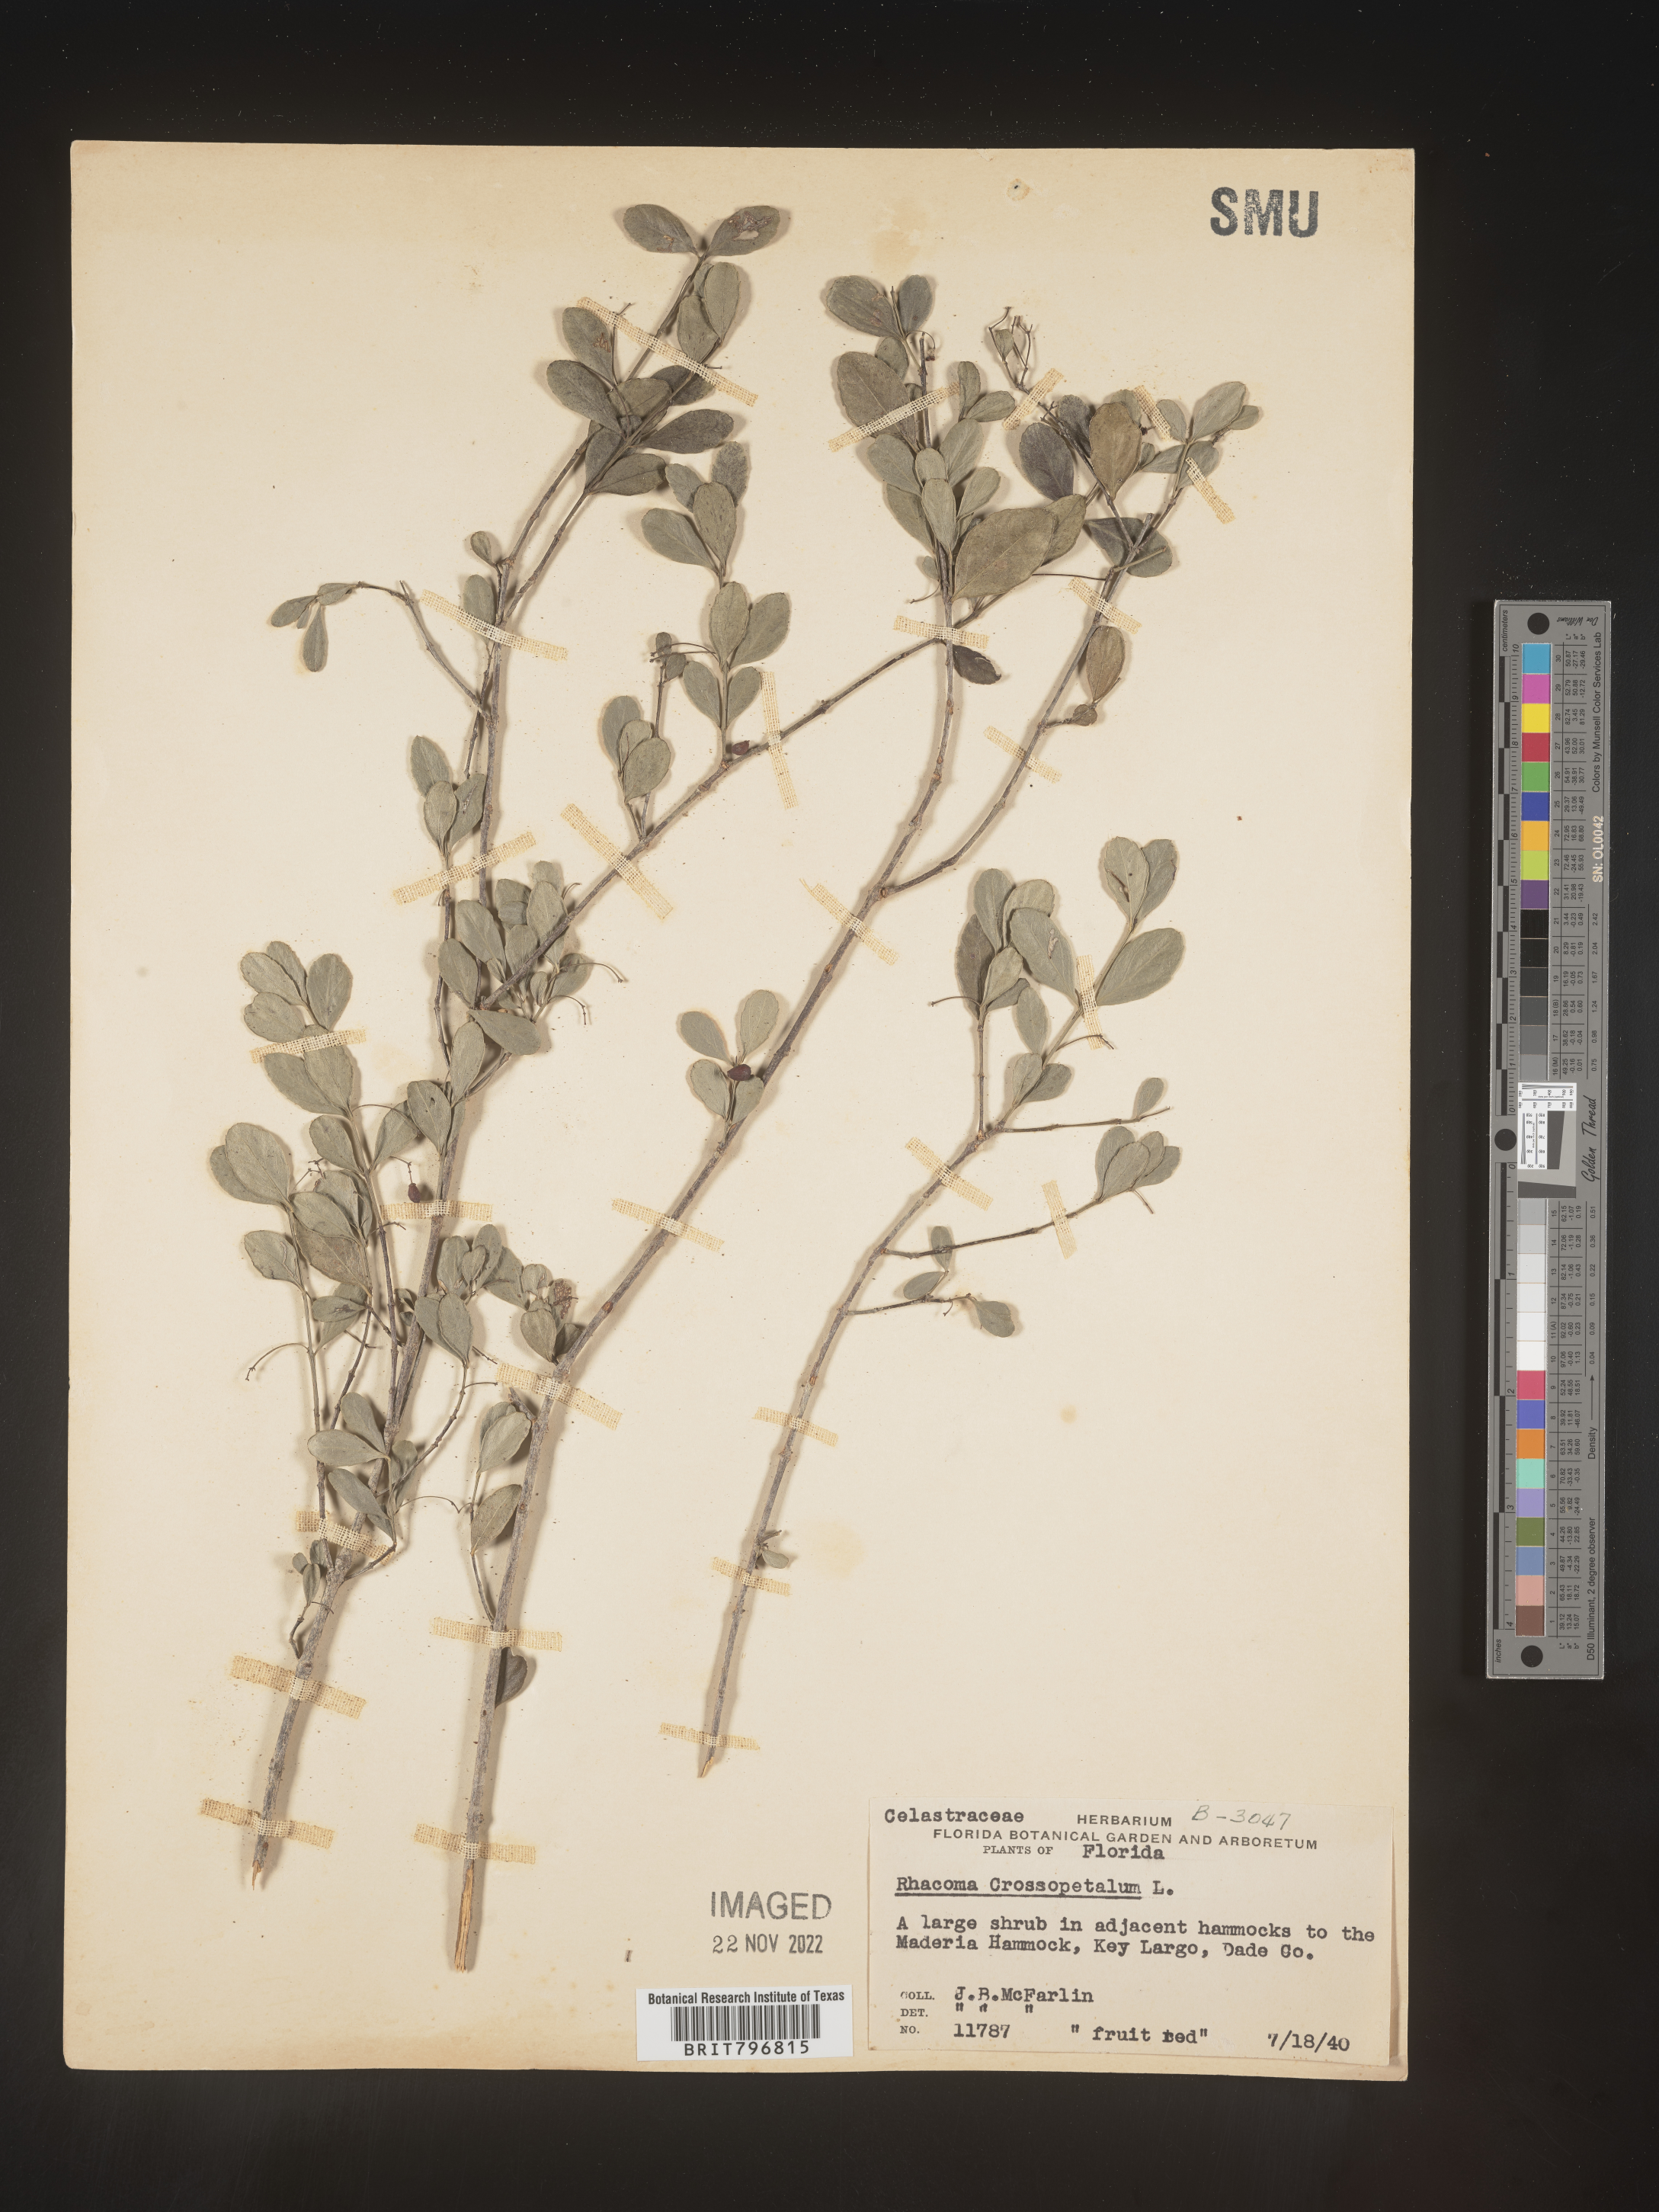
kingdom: Plantae
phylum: Tracheophyta
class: Magnoliopsida
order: Celastrales
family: Celastraceae
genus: Crossopetalum
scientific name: Crossopetalum
